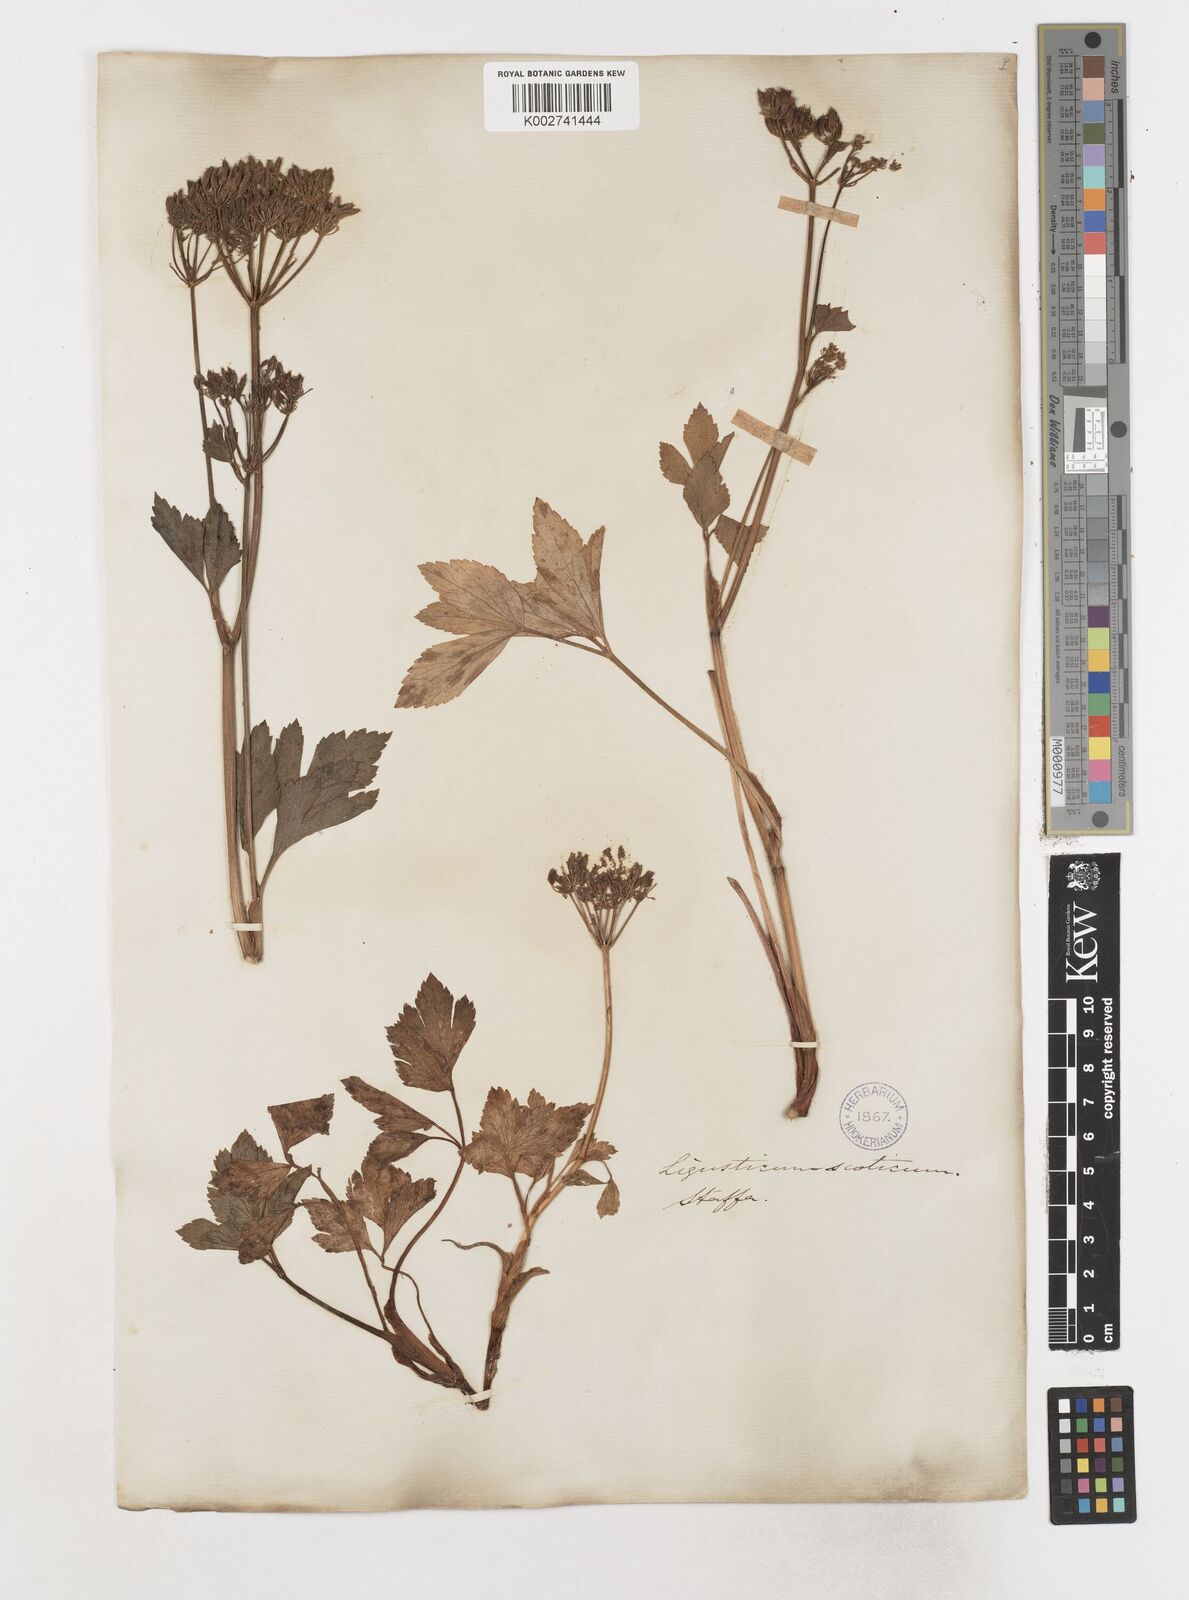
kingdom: Plantae
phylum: Tracheophyta
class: Magnoliopsida
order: Apiales
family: Apiaceae
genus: Ligusticum
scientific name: Ligusticum scothicum
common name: Beach lovage
